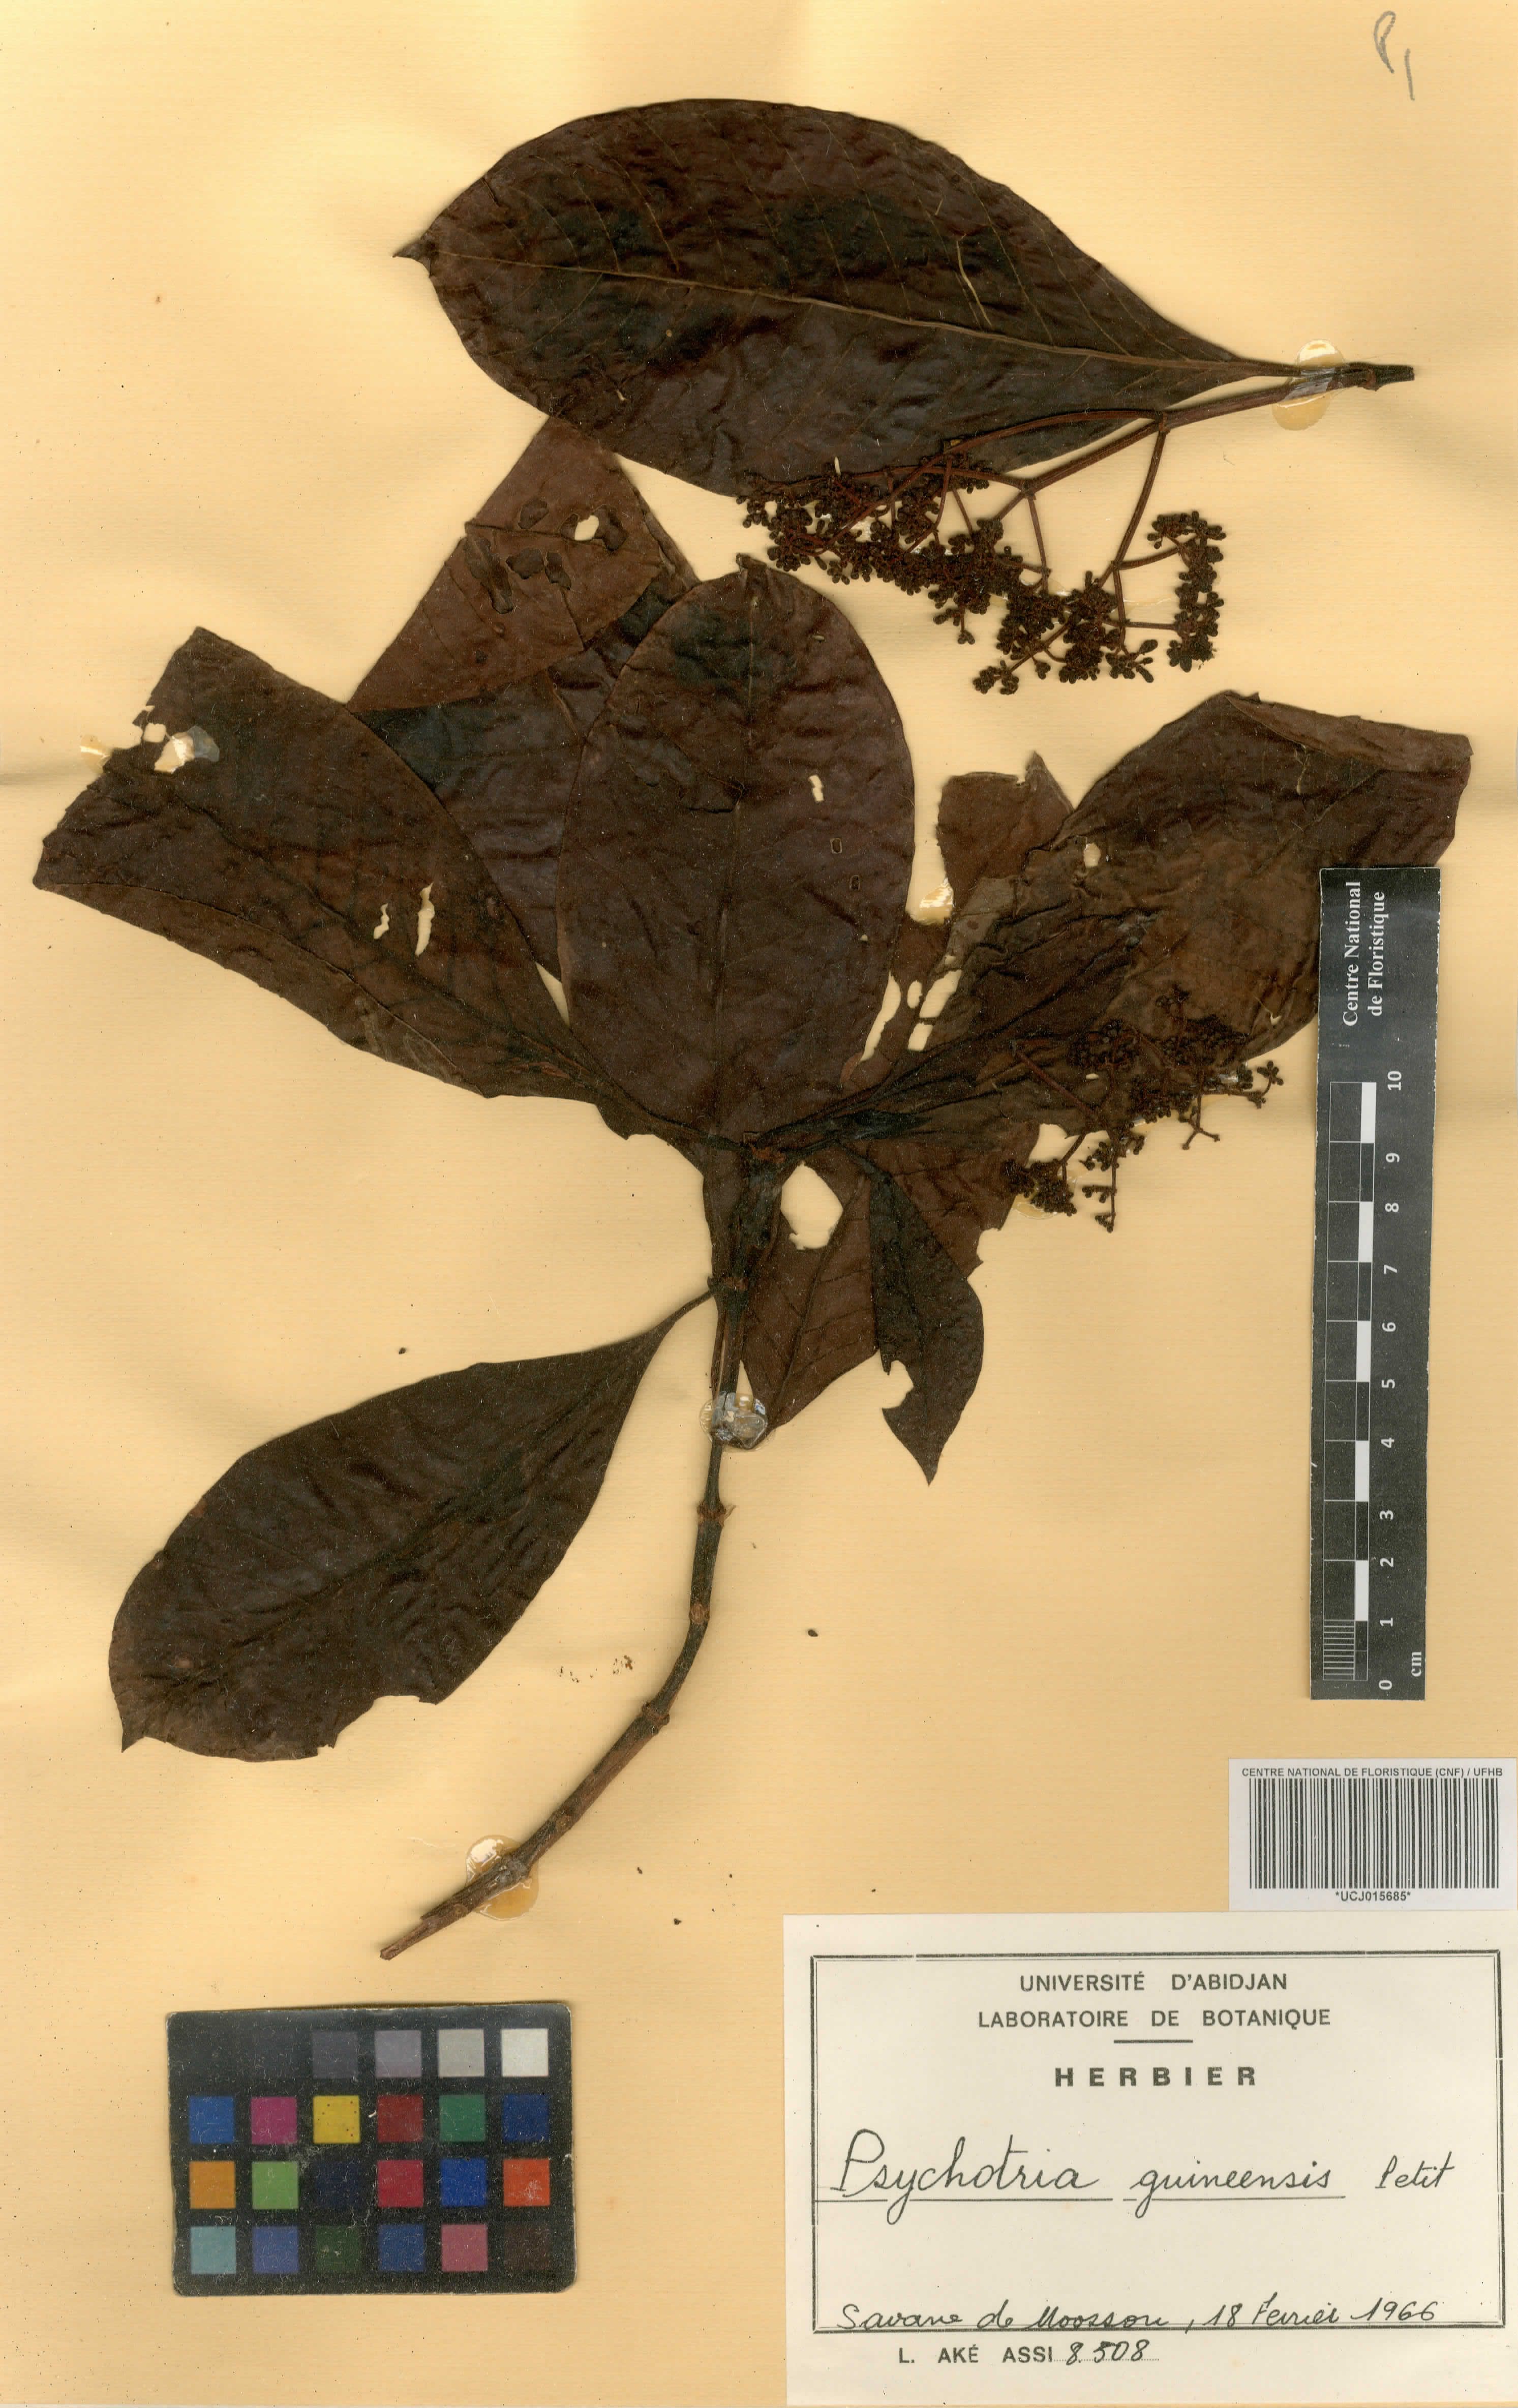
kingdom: Plantae
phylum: Tracheophyta
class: Magnoliopsida
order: Gentianales
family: Rubiaceae
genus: Psychotria
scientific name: Psychotria guineensis
